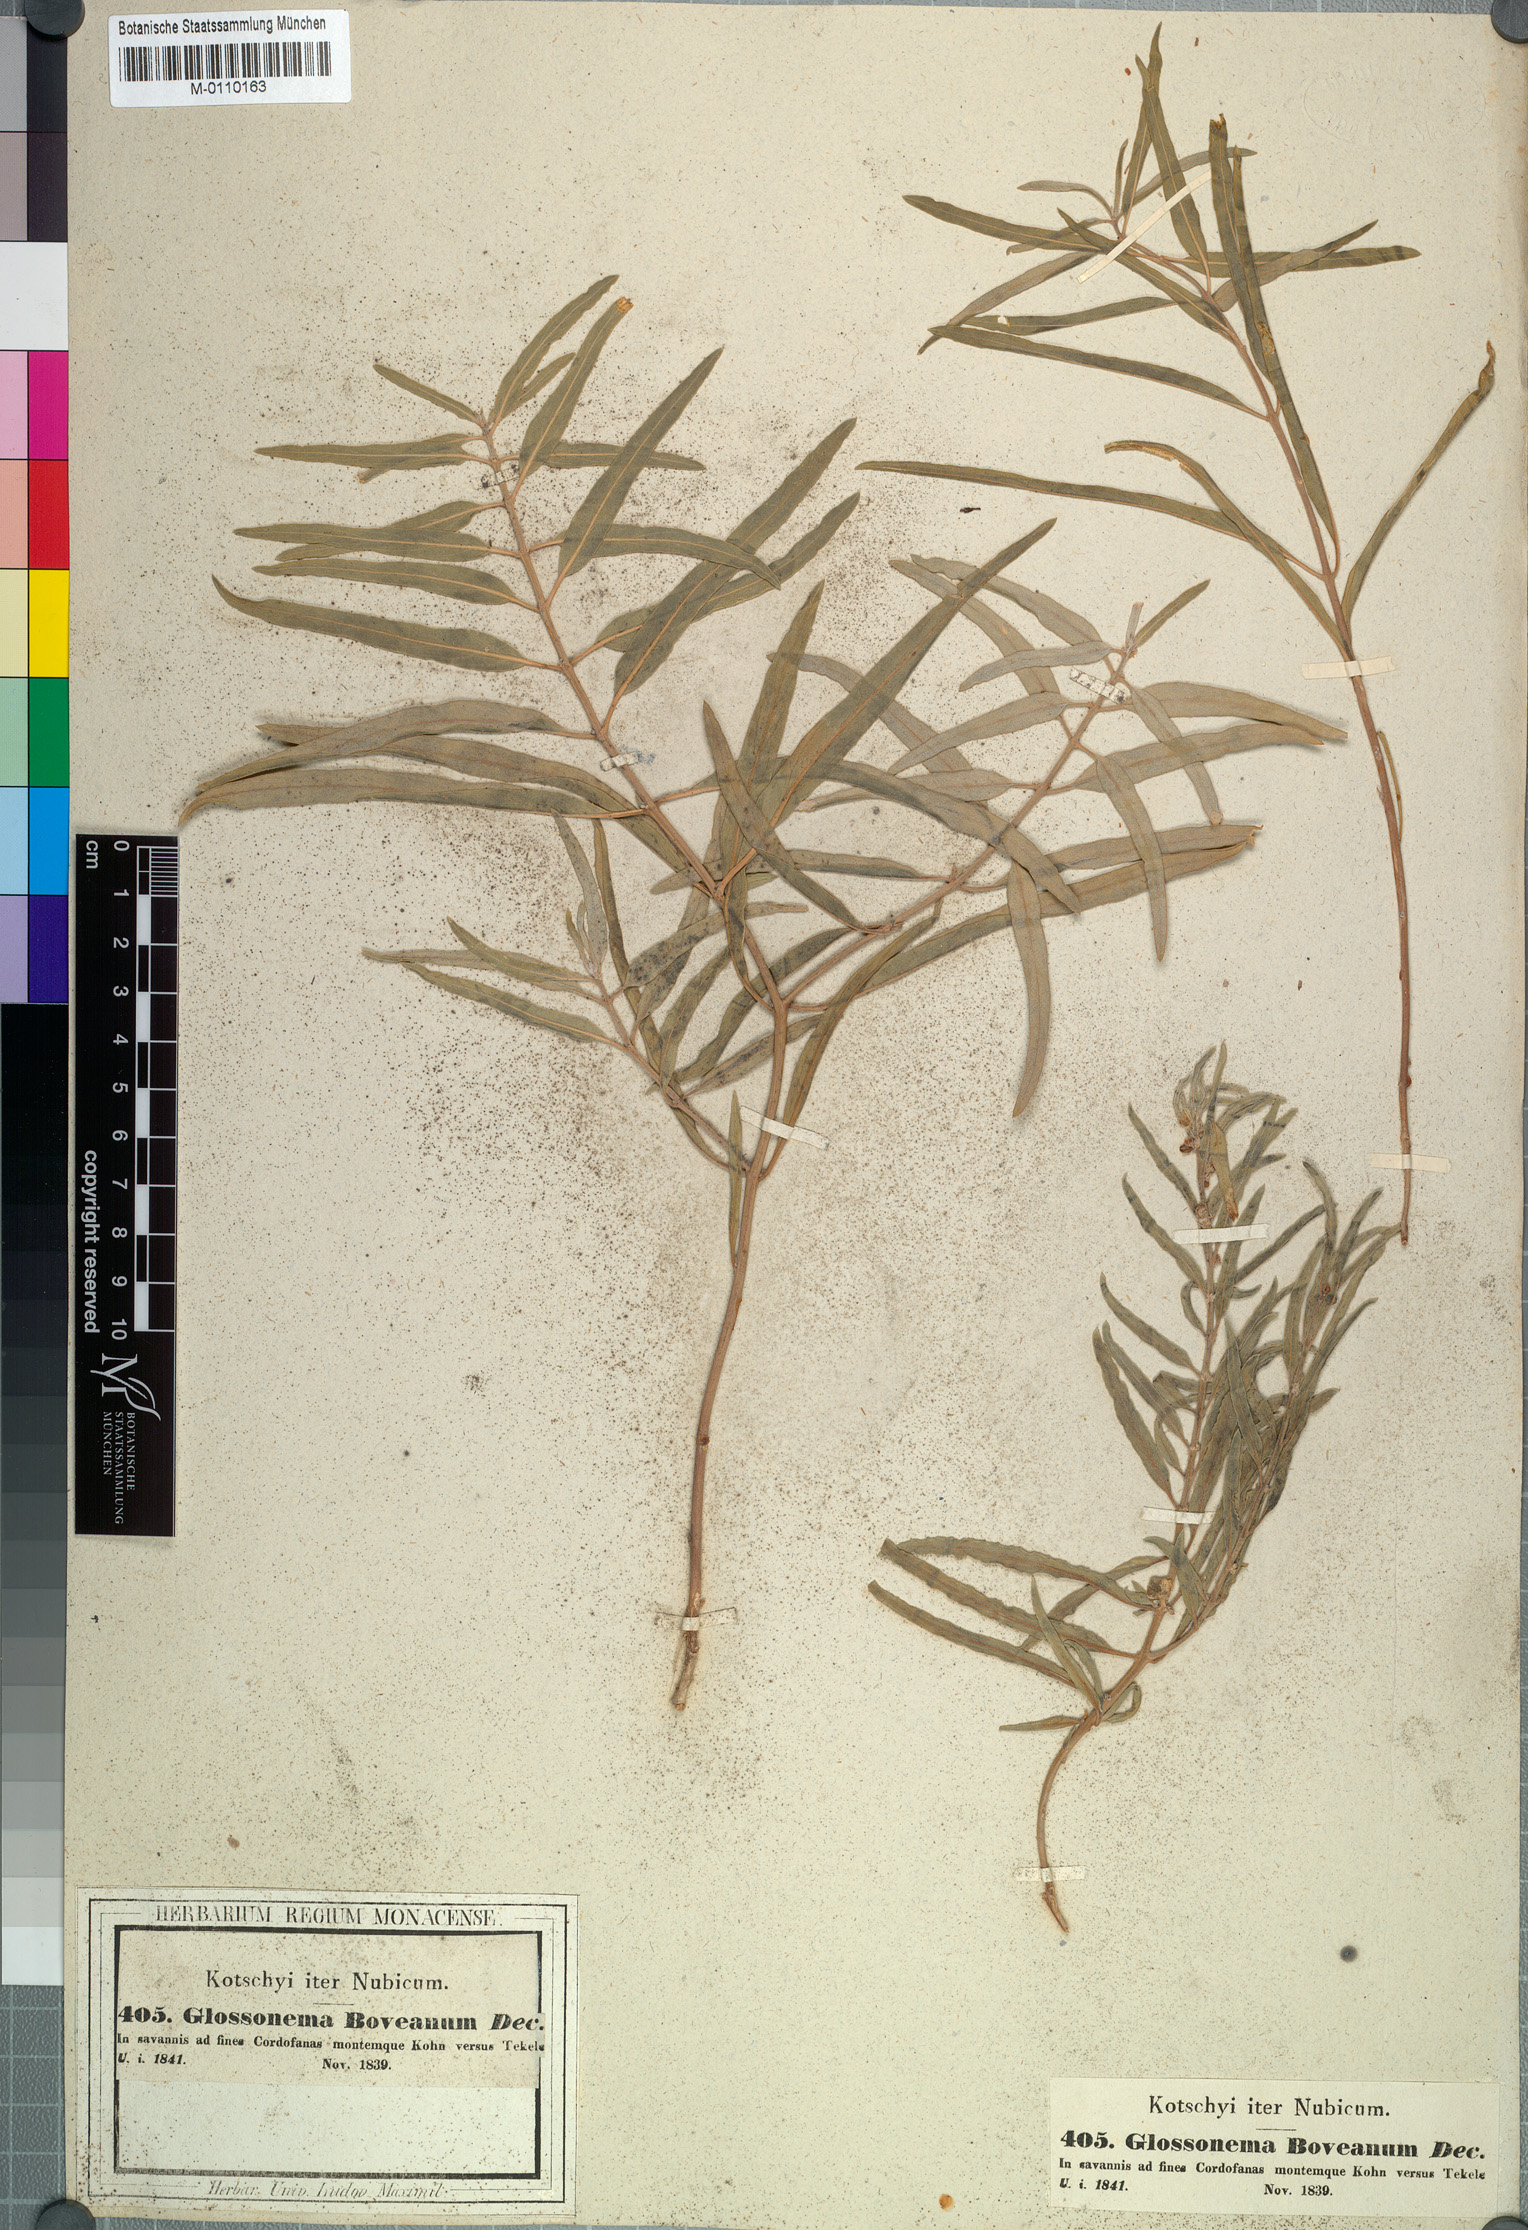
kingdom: Plantae
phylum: Tracheophyta
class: Magnoliopsida
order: Gentianales
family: Apocynaceae
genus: Cynanchum
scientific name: Cynanchum boveanum
